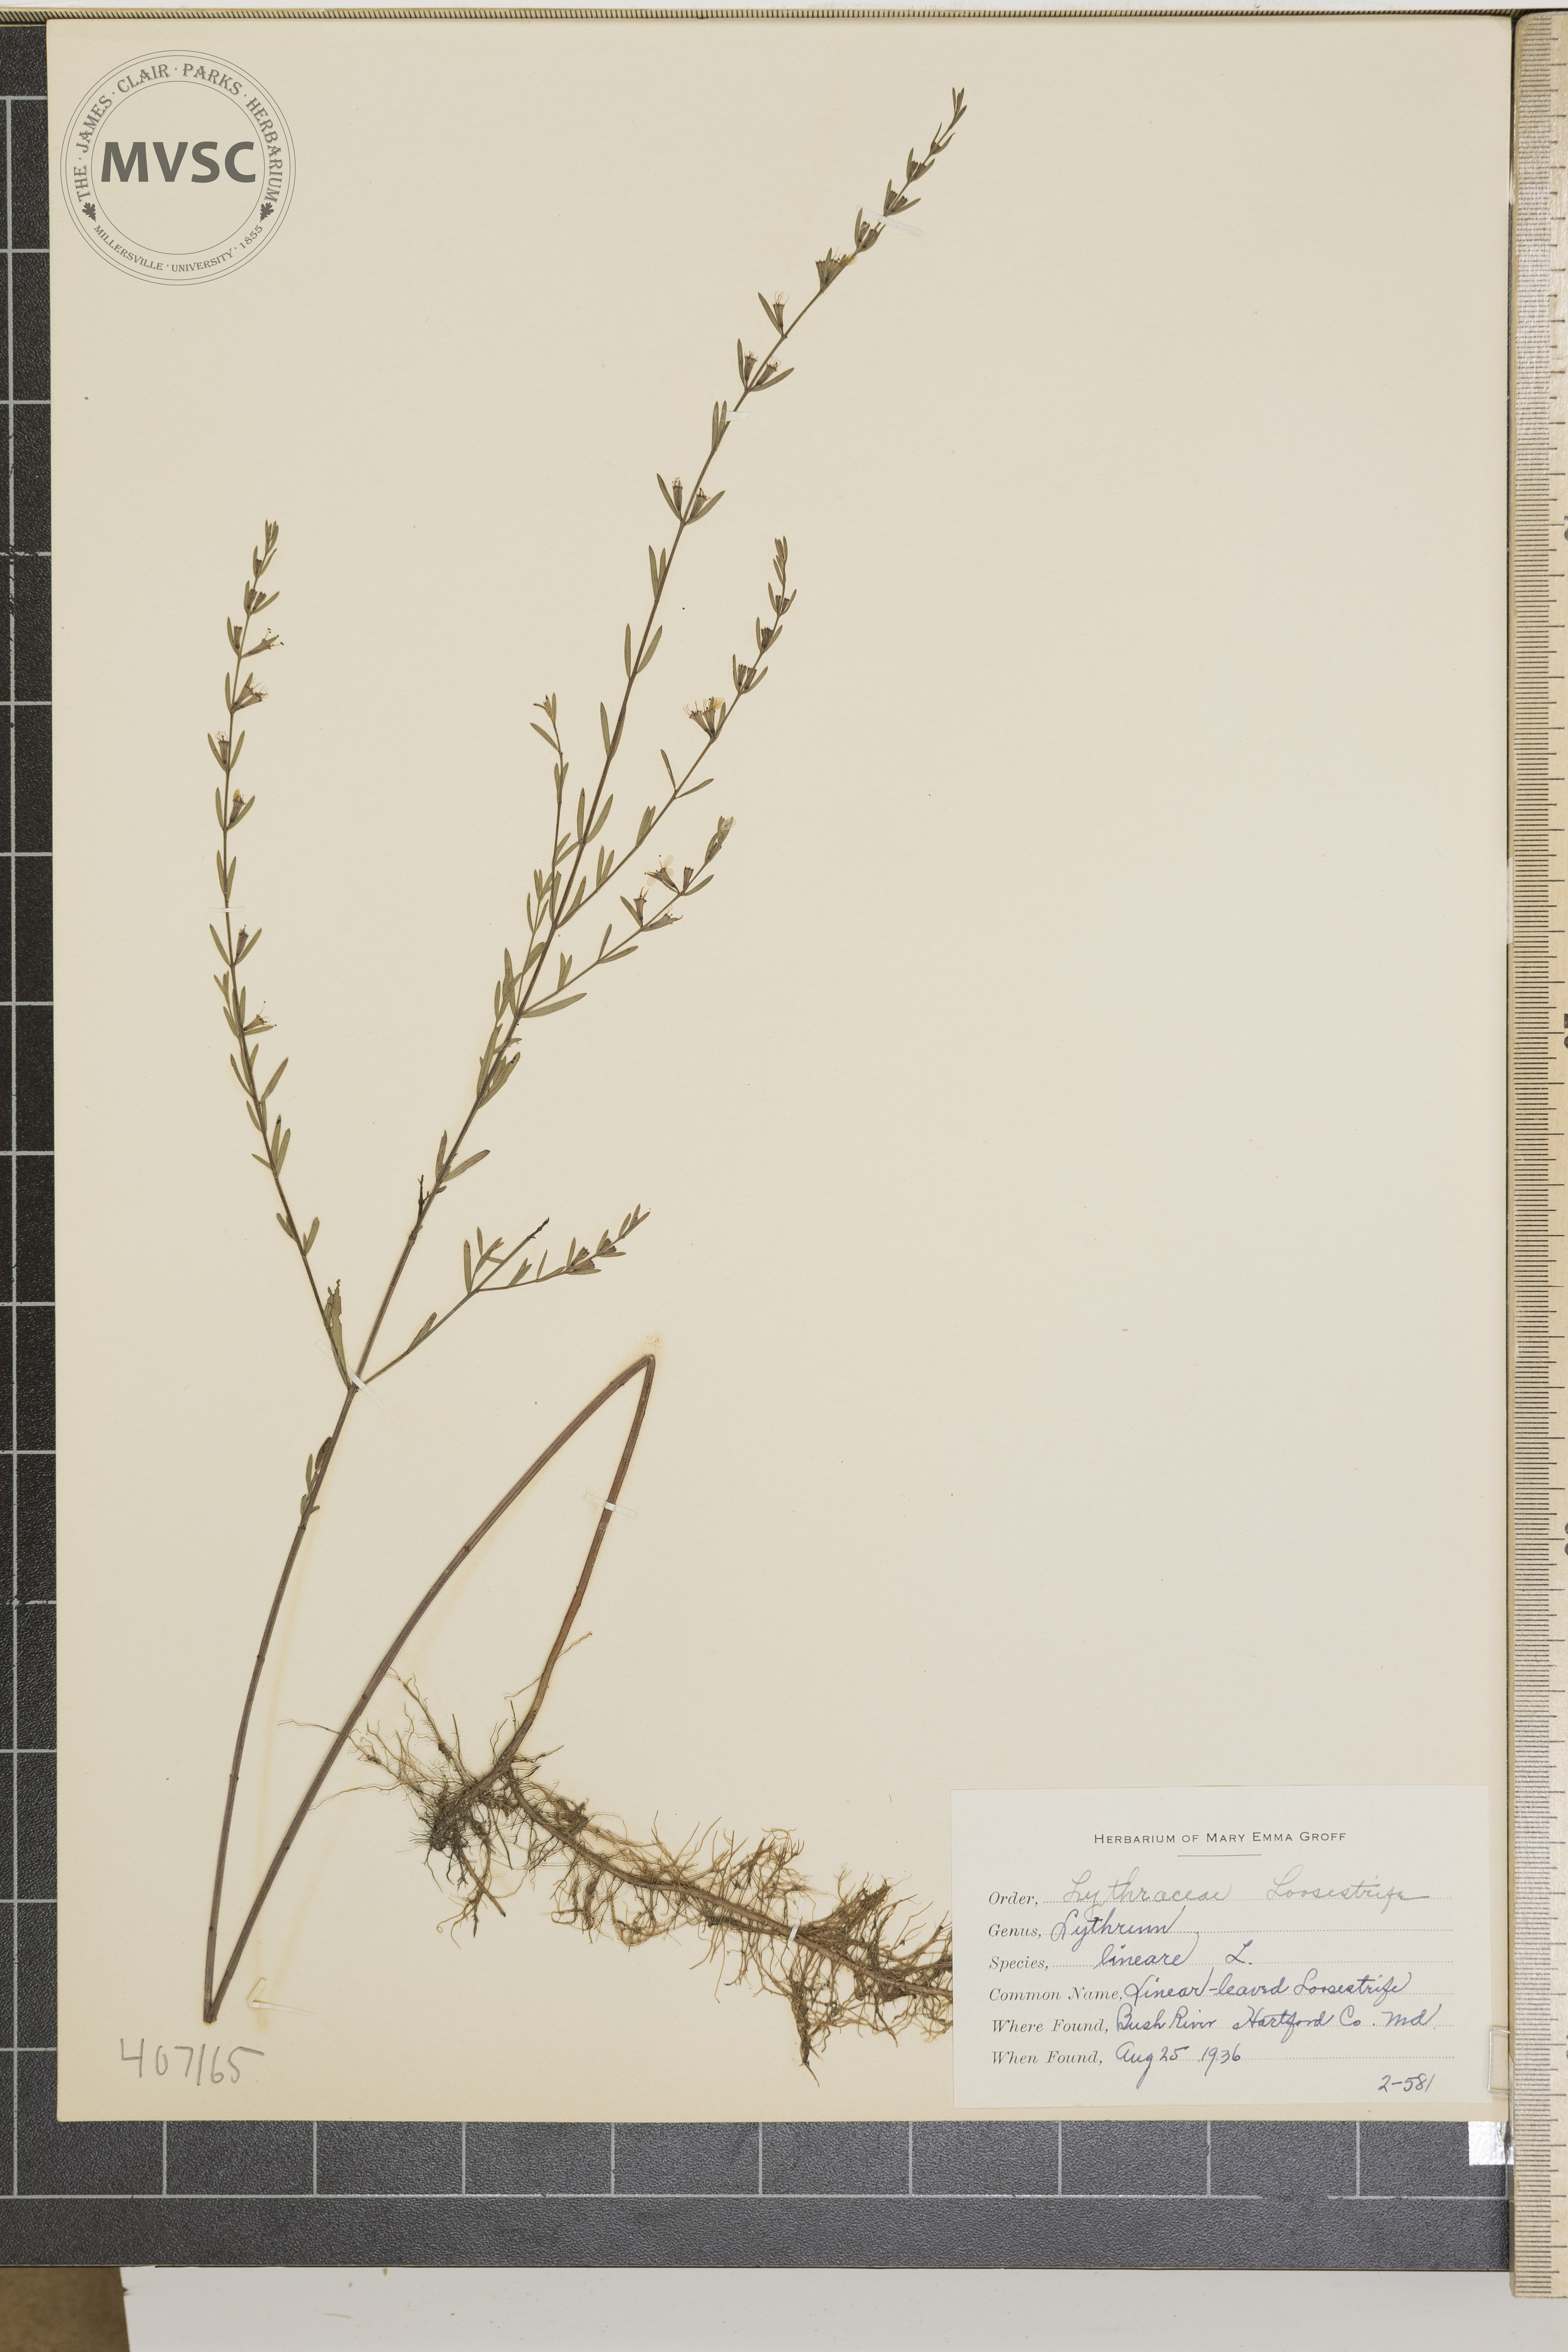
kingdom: Plantae
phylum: Tracheophyta
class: Magnoliopsida
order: Myrtales
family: Lythraceae
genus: Lythrum
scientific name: Lythrum lineare
